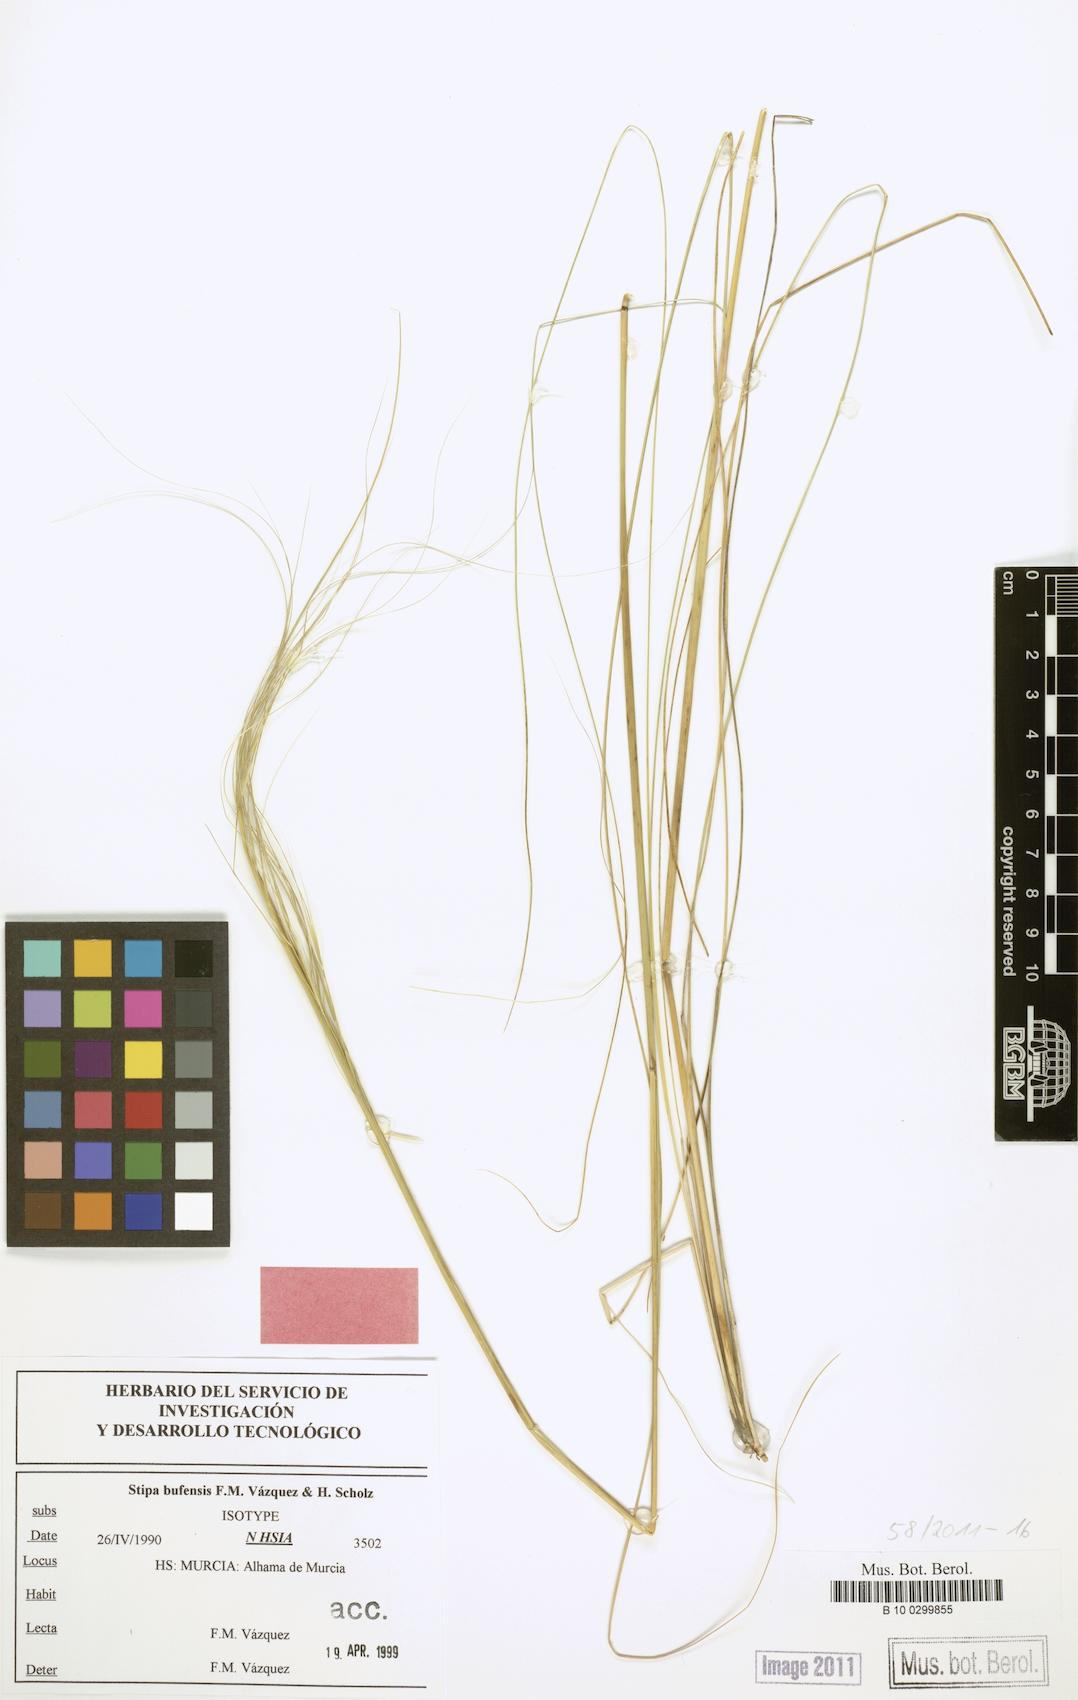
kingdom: Plantae
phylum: Tracheophyta
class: Liliopsida
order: Poales
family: Poaceae
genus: Stipa
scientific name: Stipa lagascae
